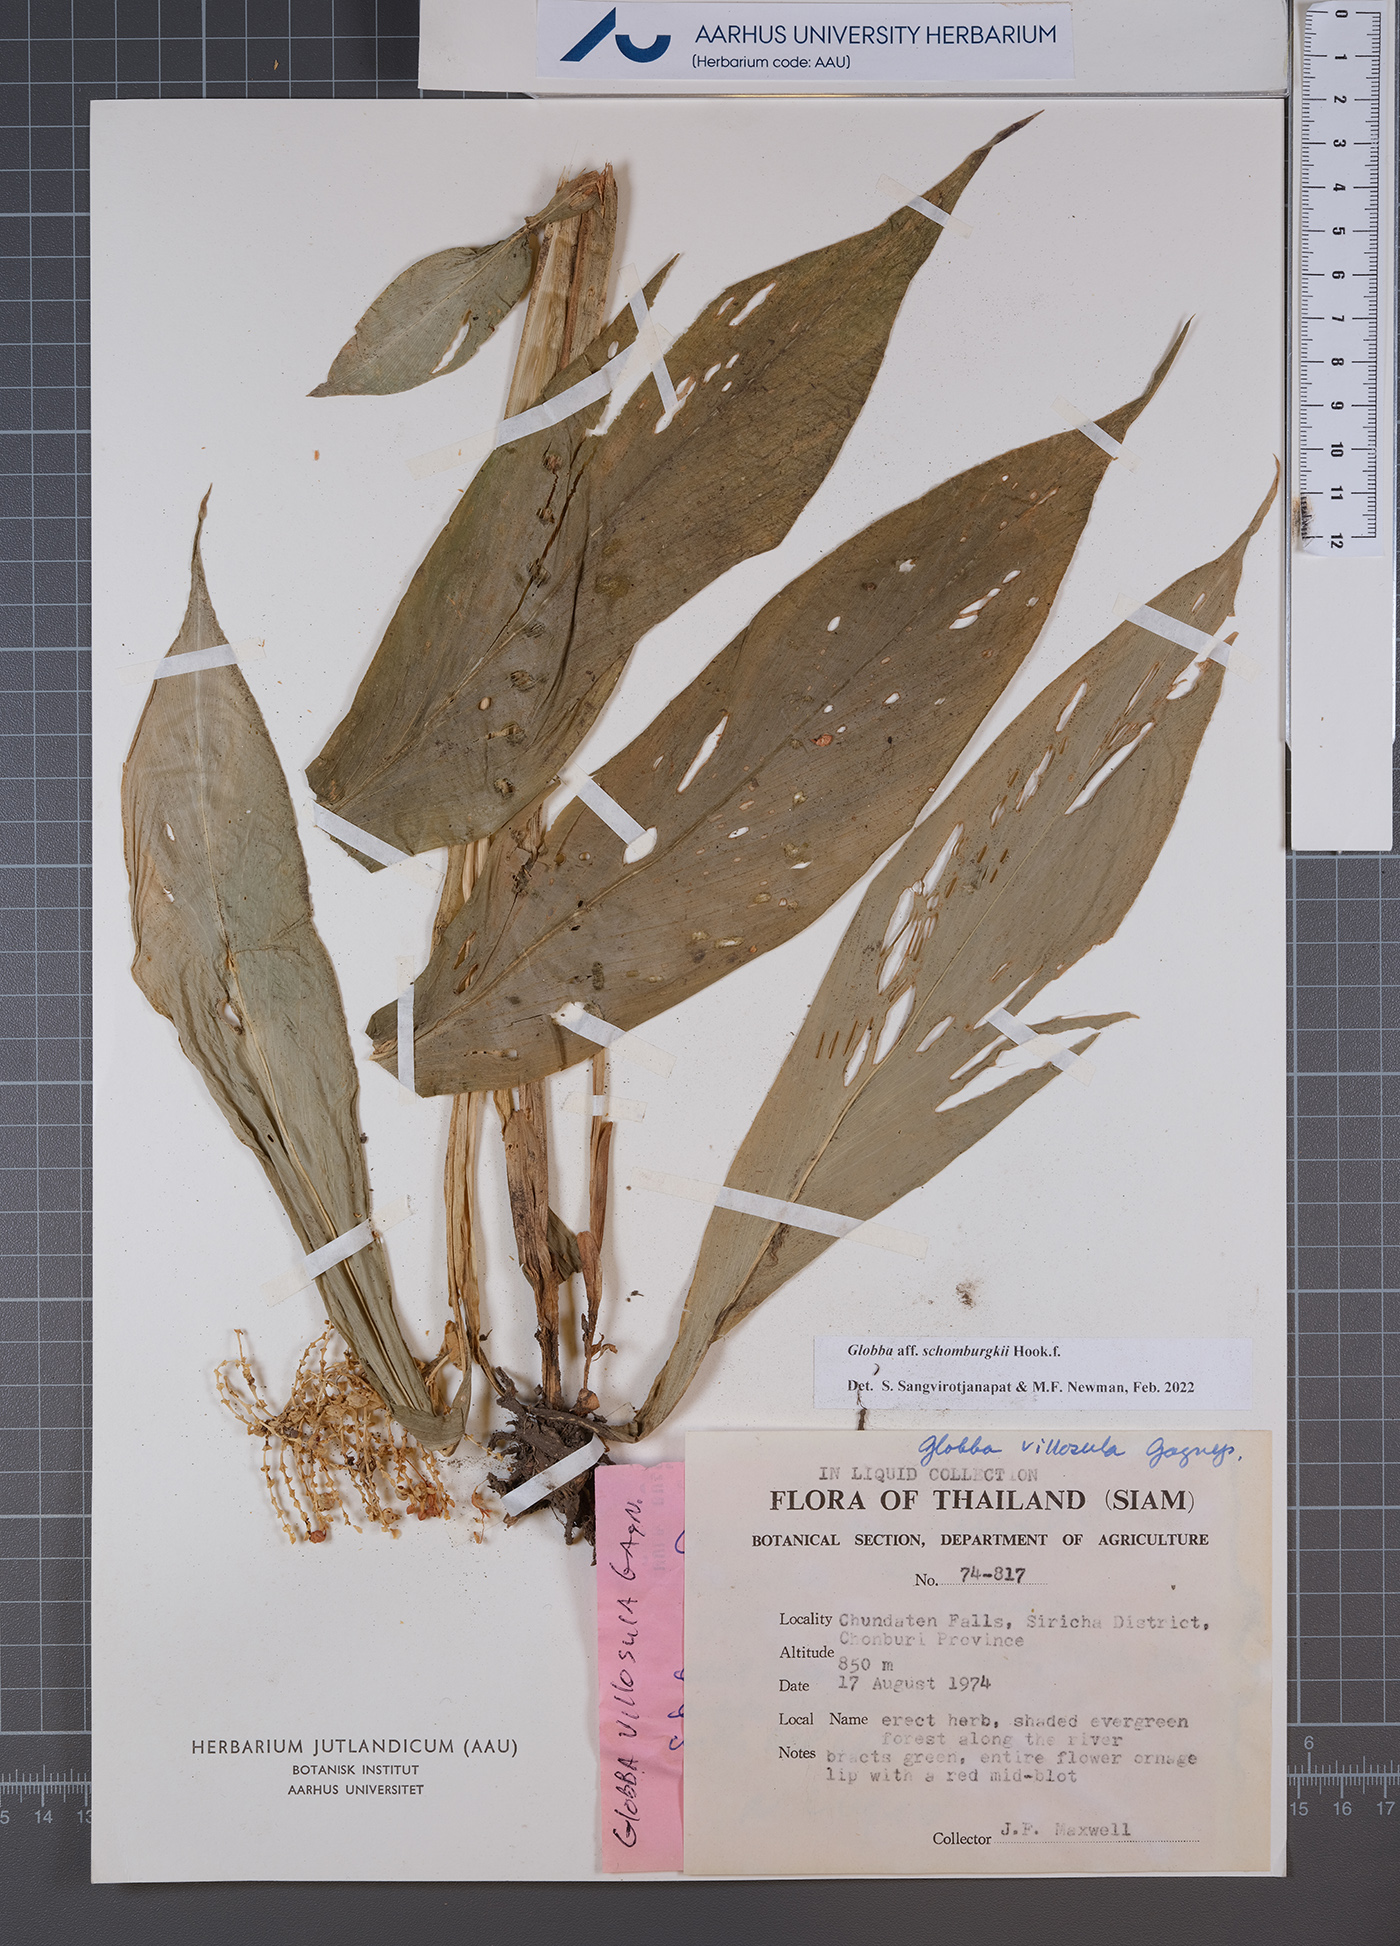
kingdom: Plantae
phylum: Tracheophyta
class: Liliopsida
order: Zingiberales
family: Zingiberaceae
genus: Globba
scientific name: Globba schomburgkii
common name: Dancing girl ginger
